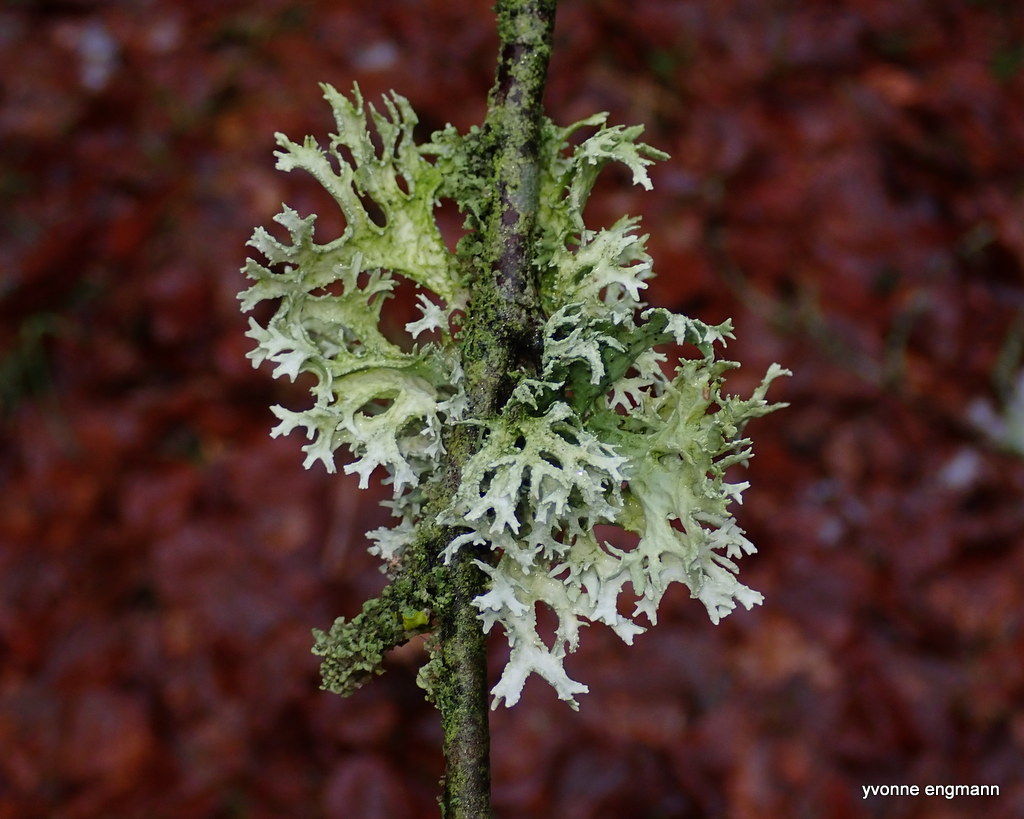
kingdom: Fungi
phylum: Ascomycota
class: Lecanoromycetes
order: Lecanorales
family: Parmeliaceae
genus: Evernia
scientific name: Evernia prunastri
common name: almindelig slåenlav
